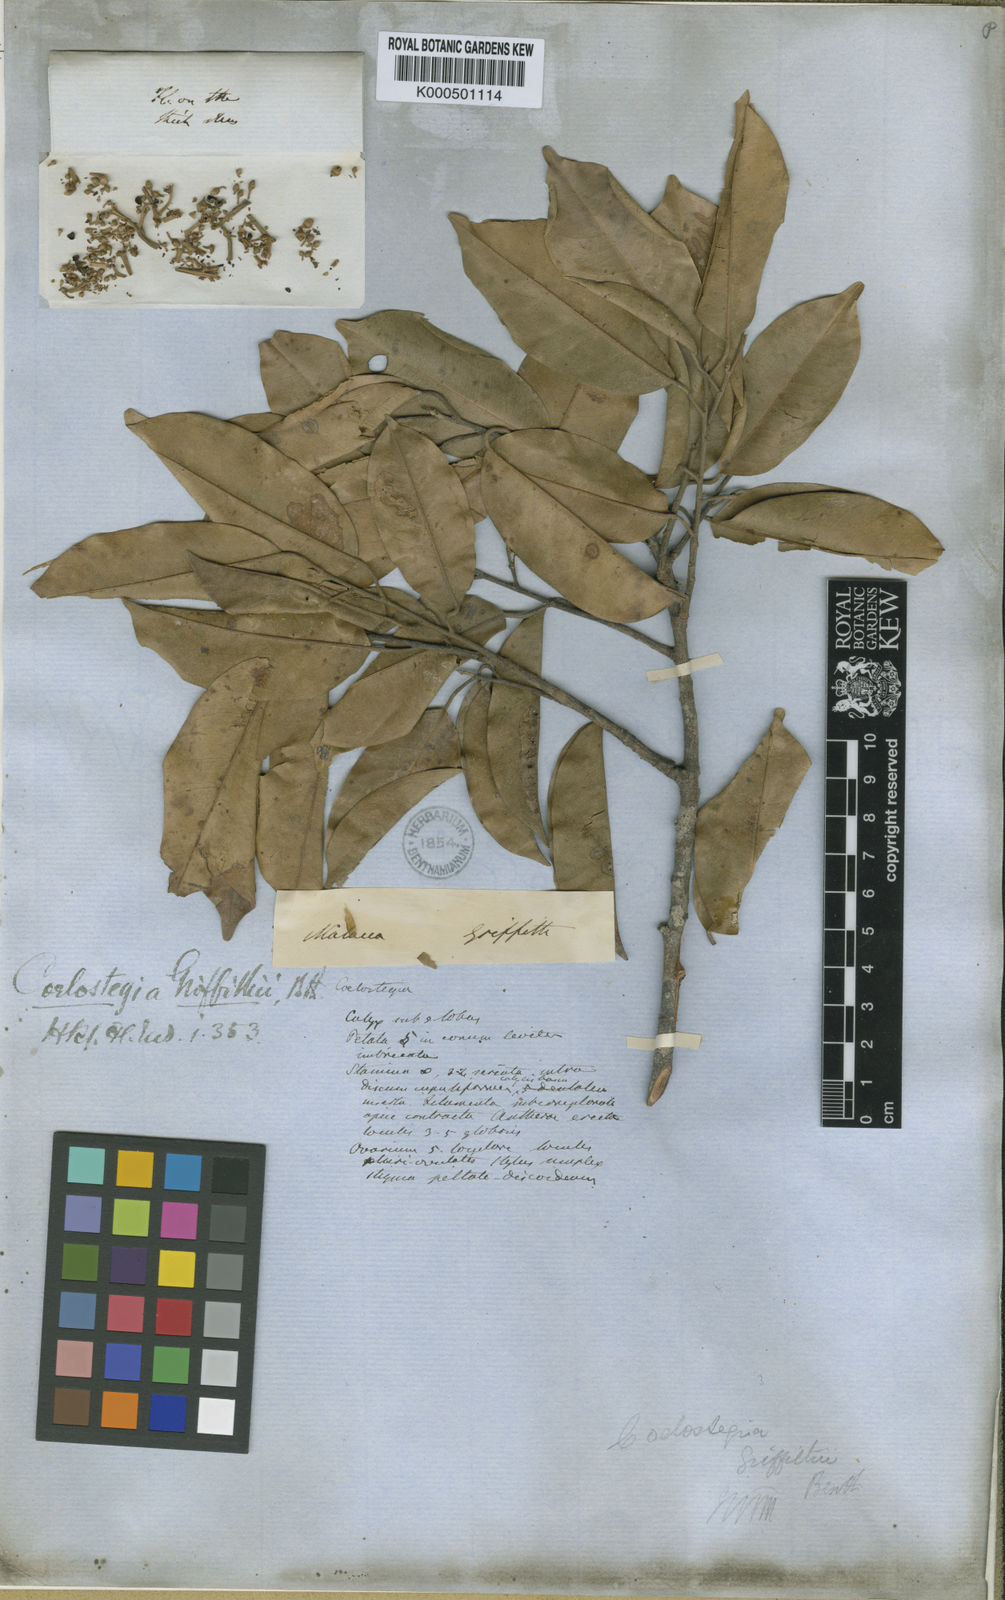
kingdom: Plantae
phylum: Tracheophyta
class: Magnoliopsida
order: Malvales
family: Malvaceae
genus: Coelostegia
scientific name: Coelostegia griffithii
